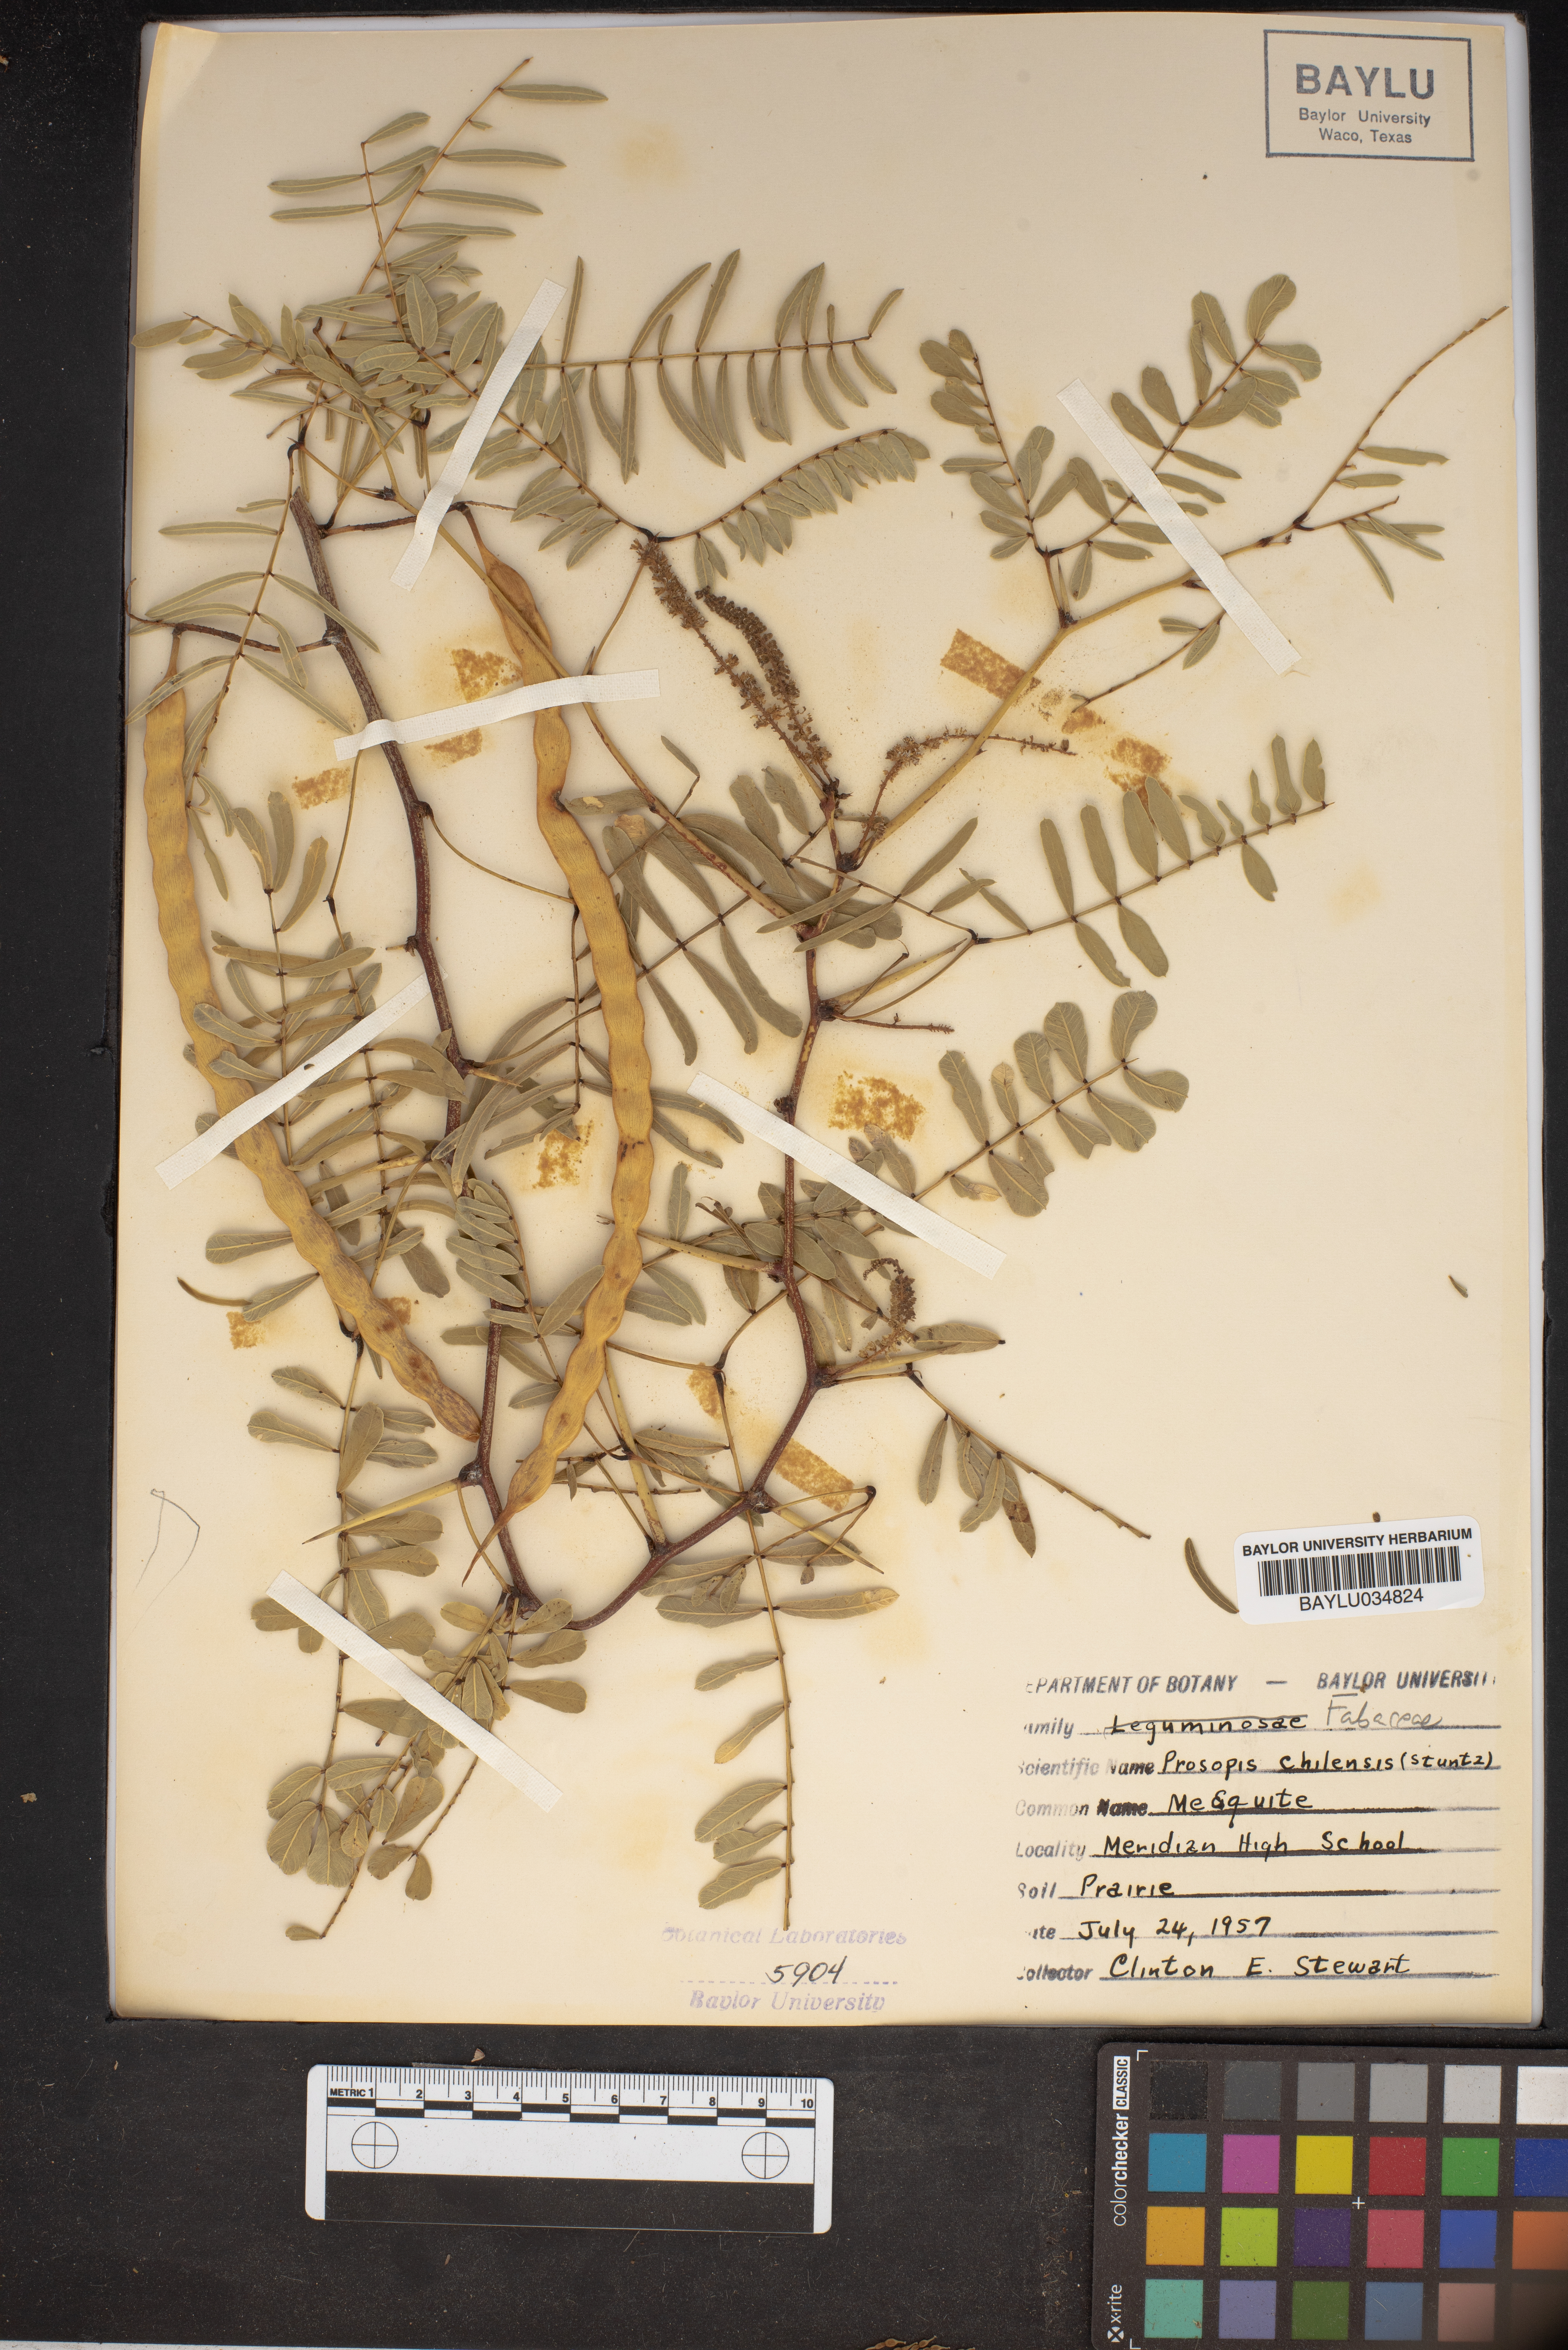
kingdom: Plantae
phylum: Tracheophyta
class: Magnoliopsida
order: Fabales
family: Fabaceae
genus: Prosopis
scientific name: Prosopis chilensis
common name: Chilean algarrobo
